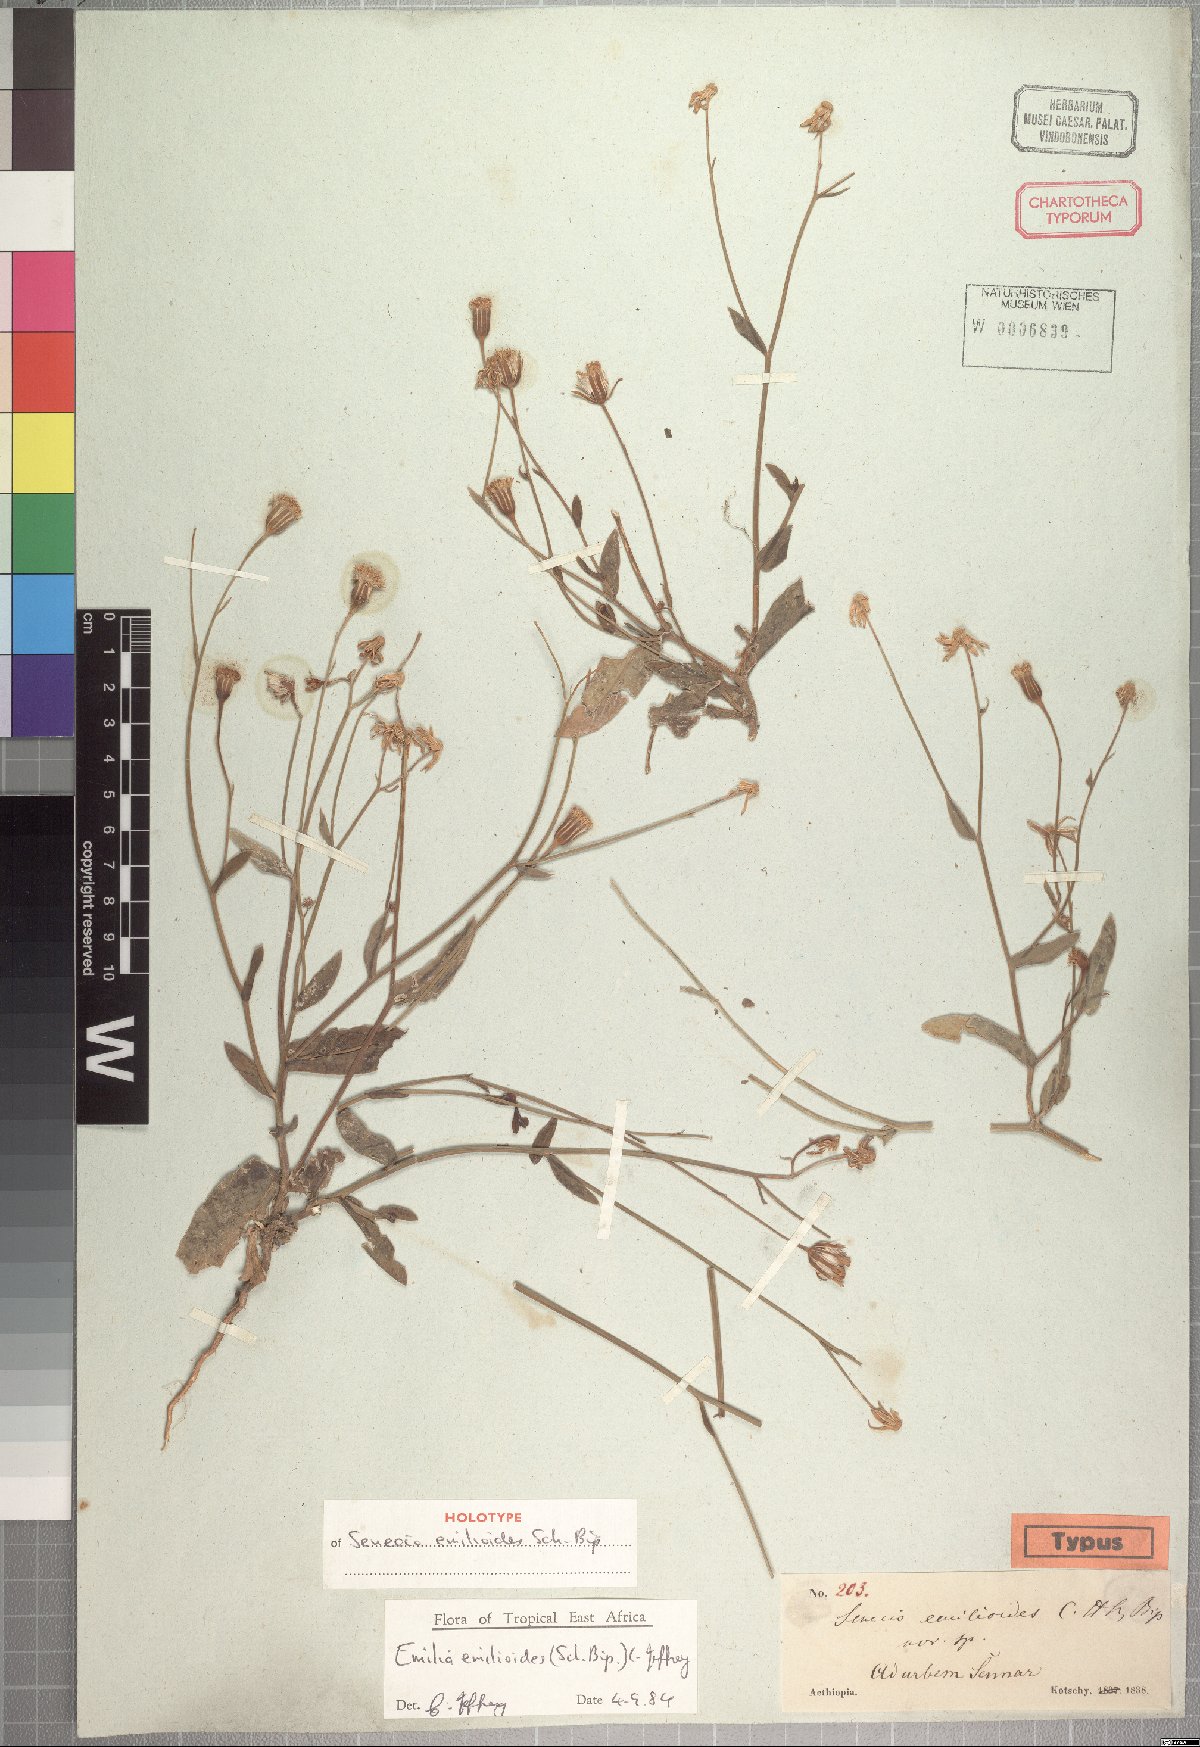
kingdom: Plantae
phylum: Tracheophyta
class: Magnoliopsida
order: Asterales
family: Asteraceae
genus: Emilia
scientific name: Emilia emilioides
